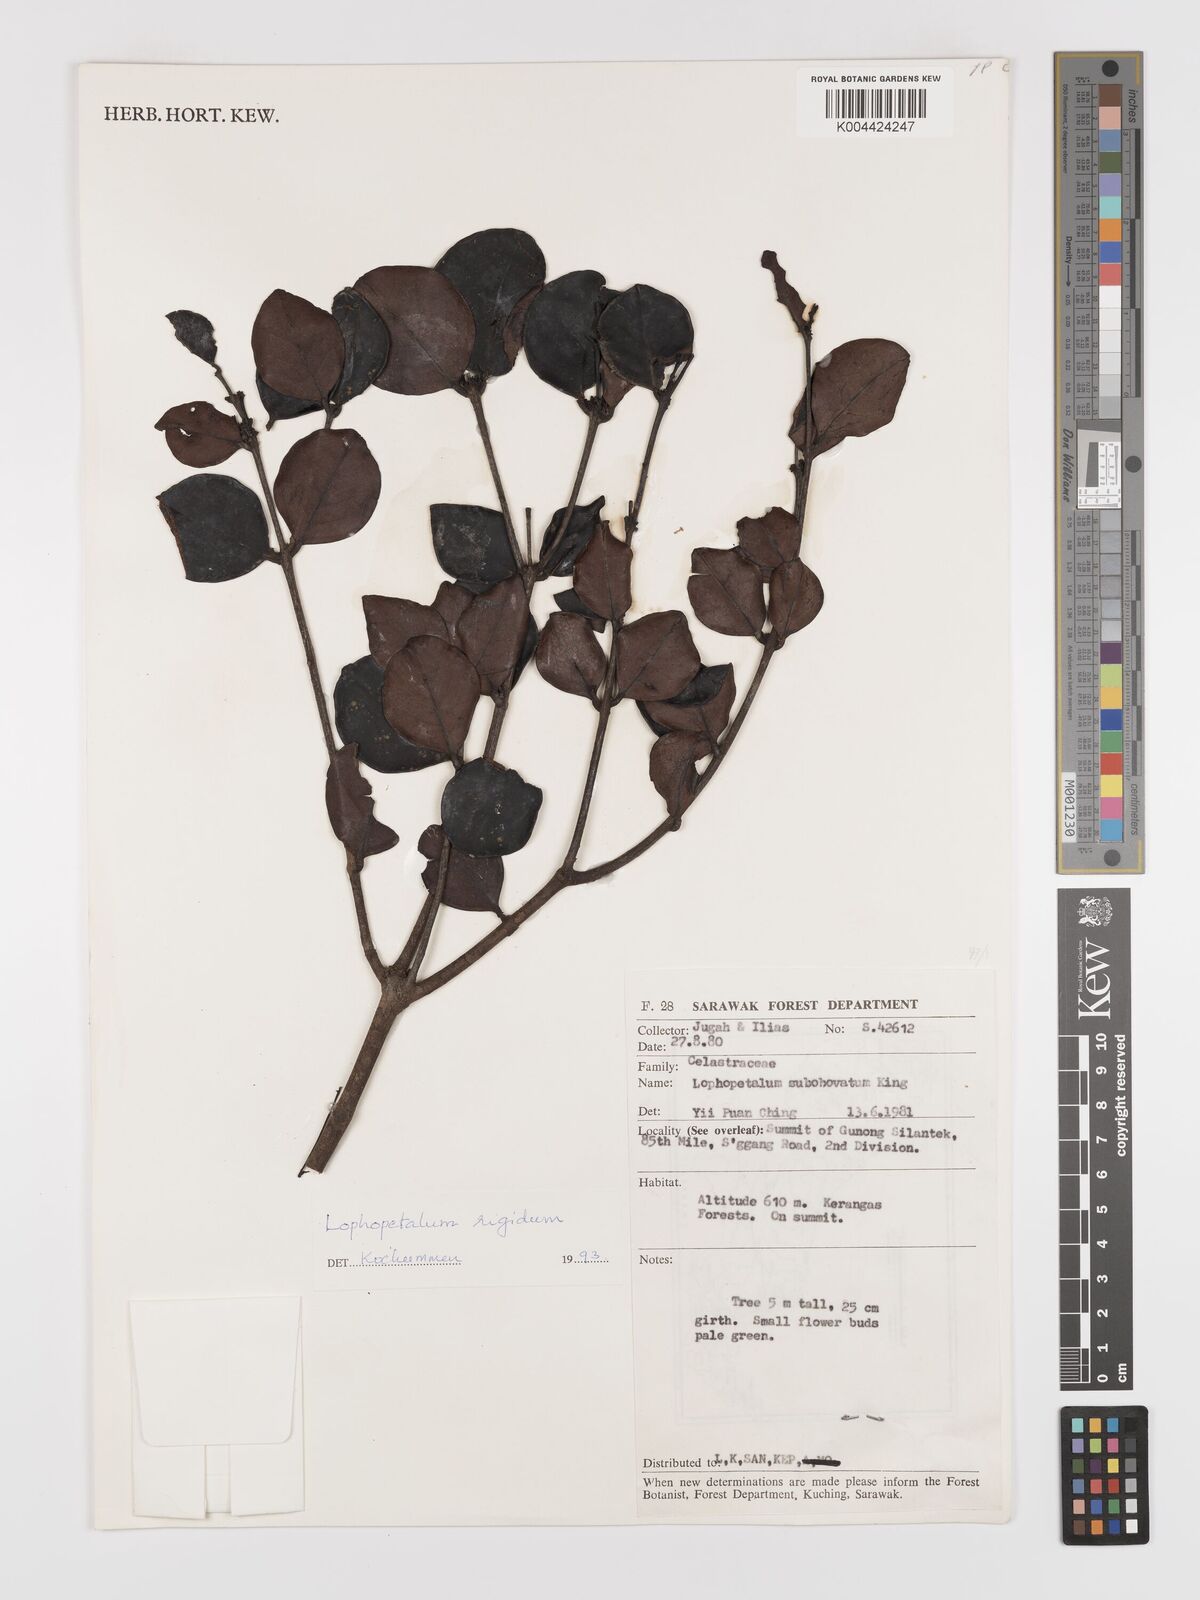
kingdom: Plantae
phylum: Tracheophyta
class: Magnoliopsida
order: Celastrales
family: Celastraceae
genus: Lophopetalum
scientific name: Lophopetalum rigidum
